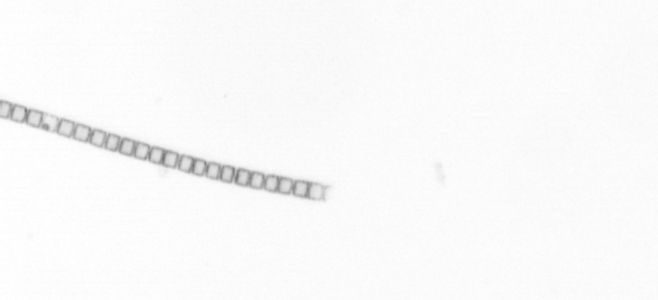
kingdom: Chromista
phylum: Ochrophyta
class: Bacillariophyceae
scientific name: Bacillariophyceae
